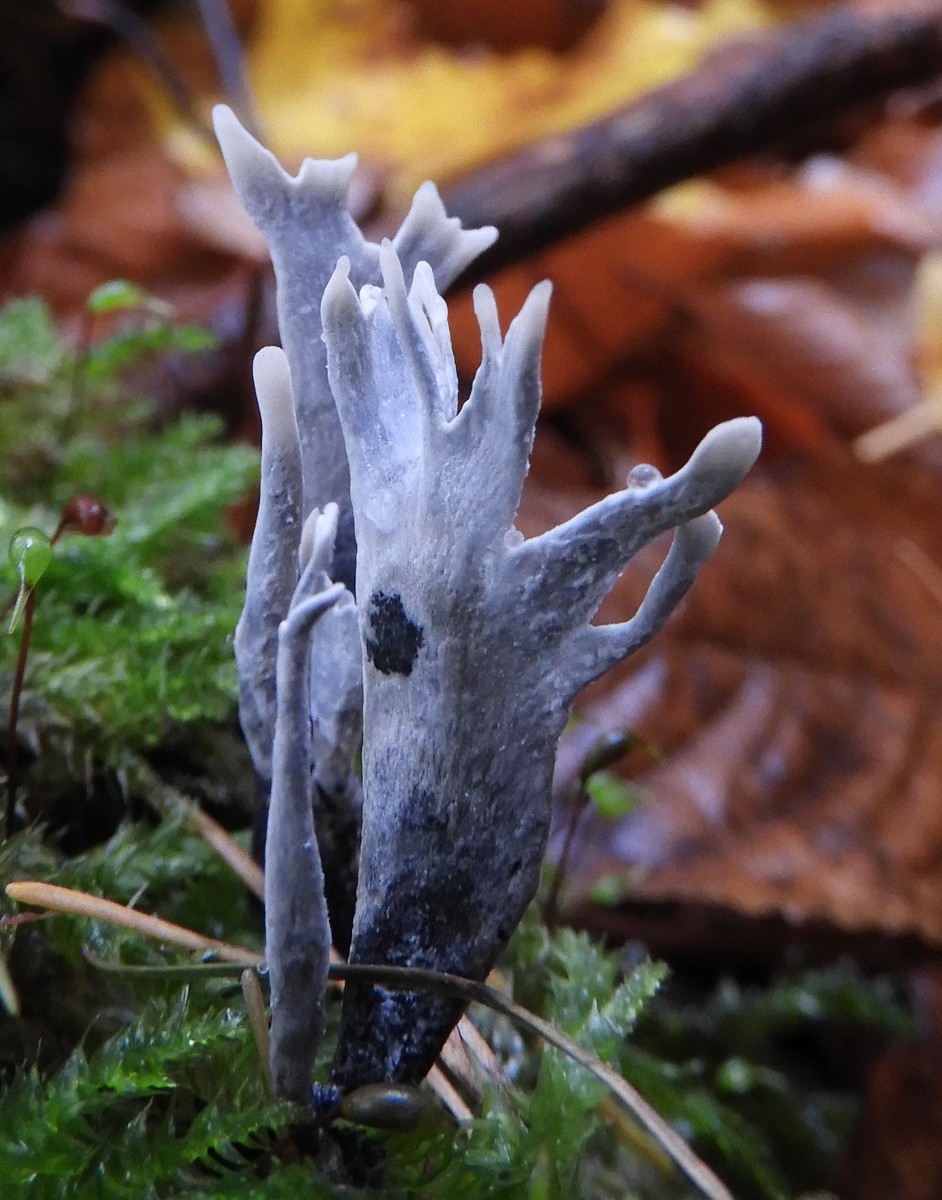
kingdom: Fungi
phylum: Ascomycota
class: Sordariomycetes
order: Xylariales
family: Xylariaceae
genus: Xylaria
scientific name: Xylaria hypoxylon
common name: grenet stødsvamp
